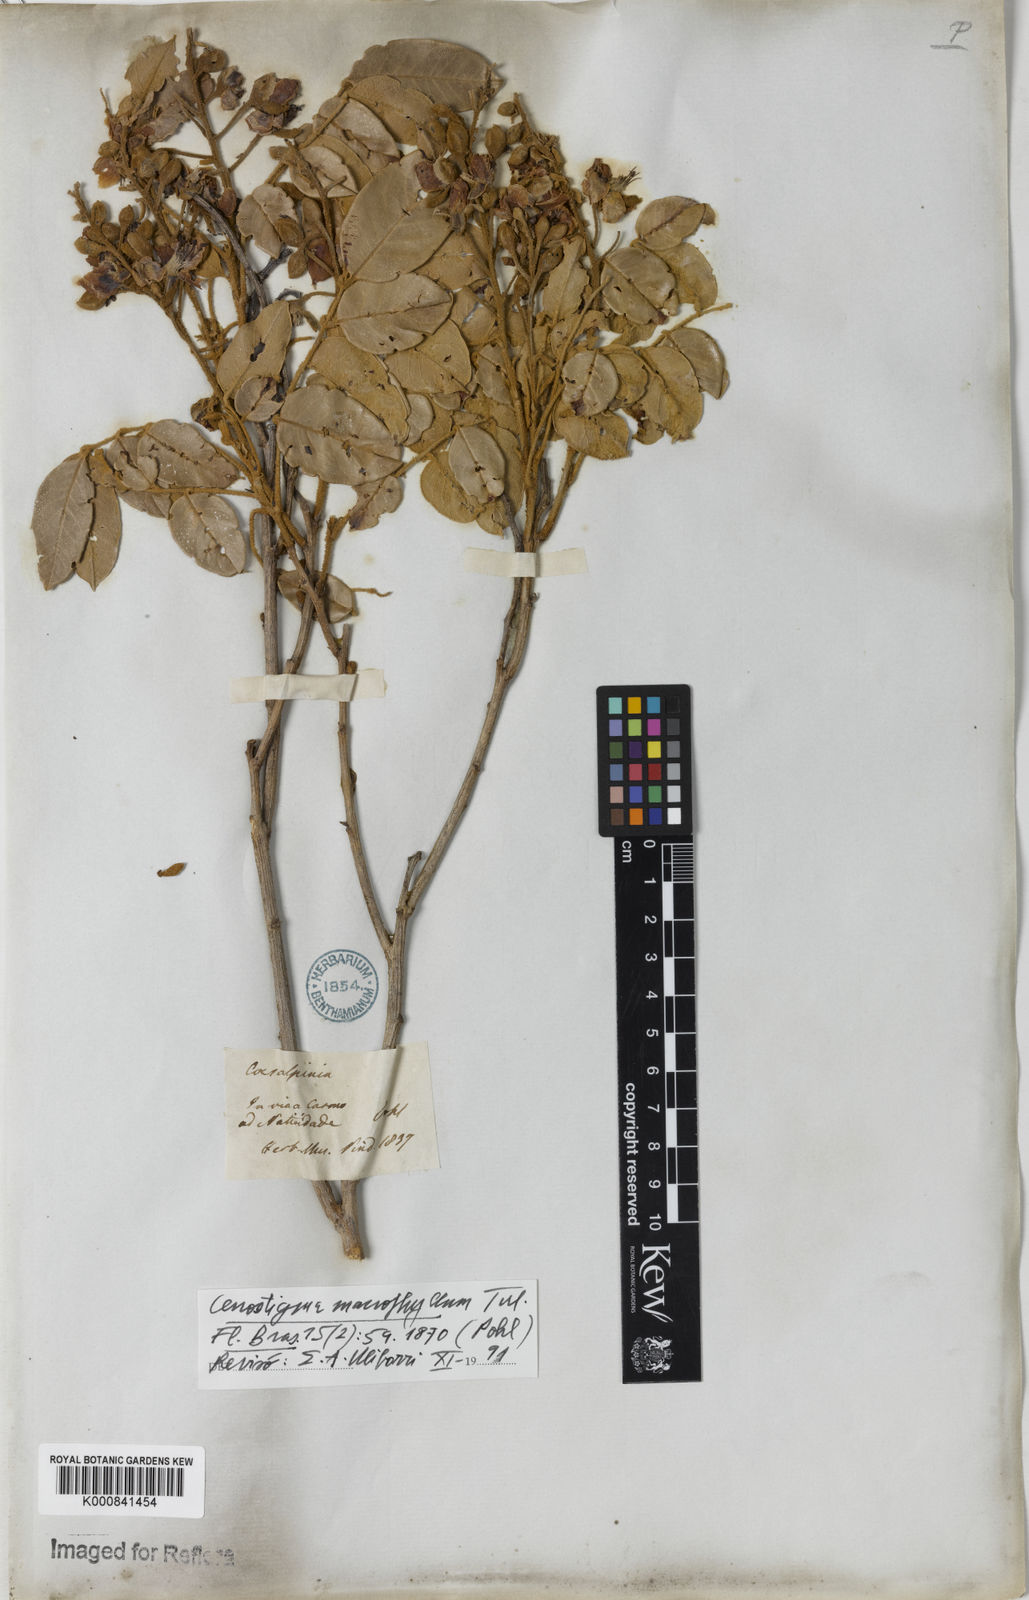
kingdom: Plantae
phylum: Tracheophyta
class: Magnoliopsida
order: Fabales
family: Fabaceae
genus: Cenostigma
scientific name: Cenostigma macrophyllum
